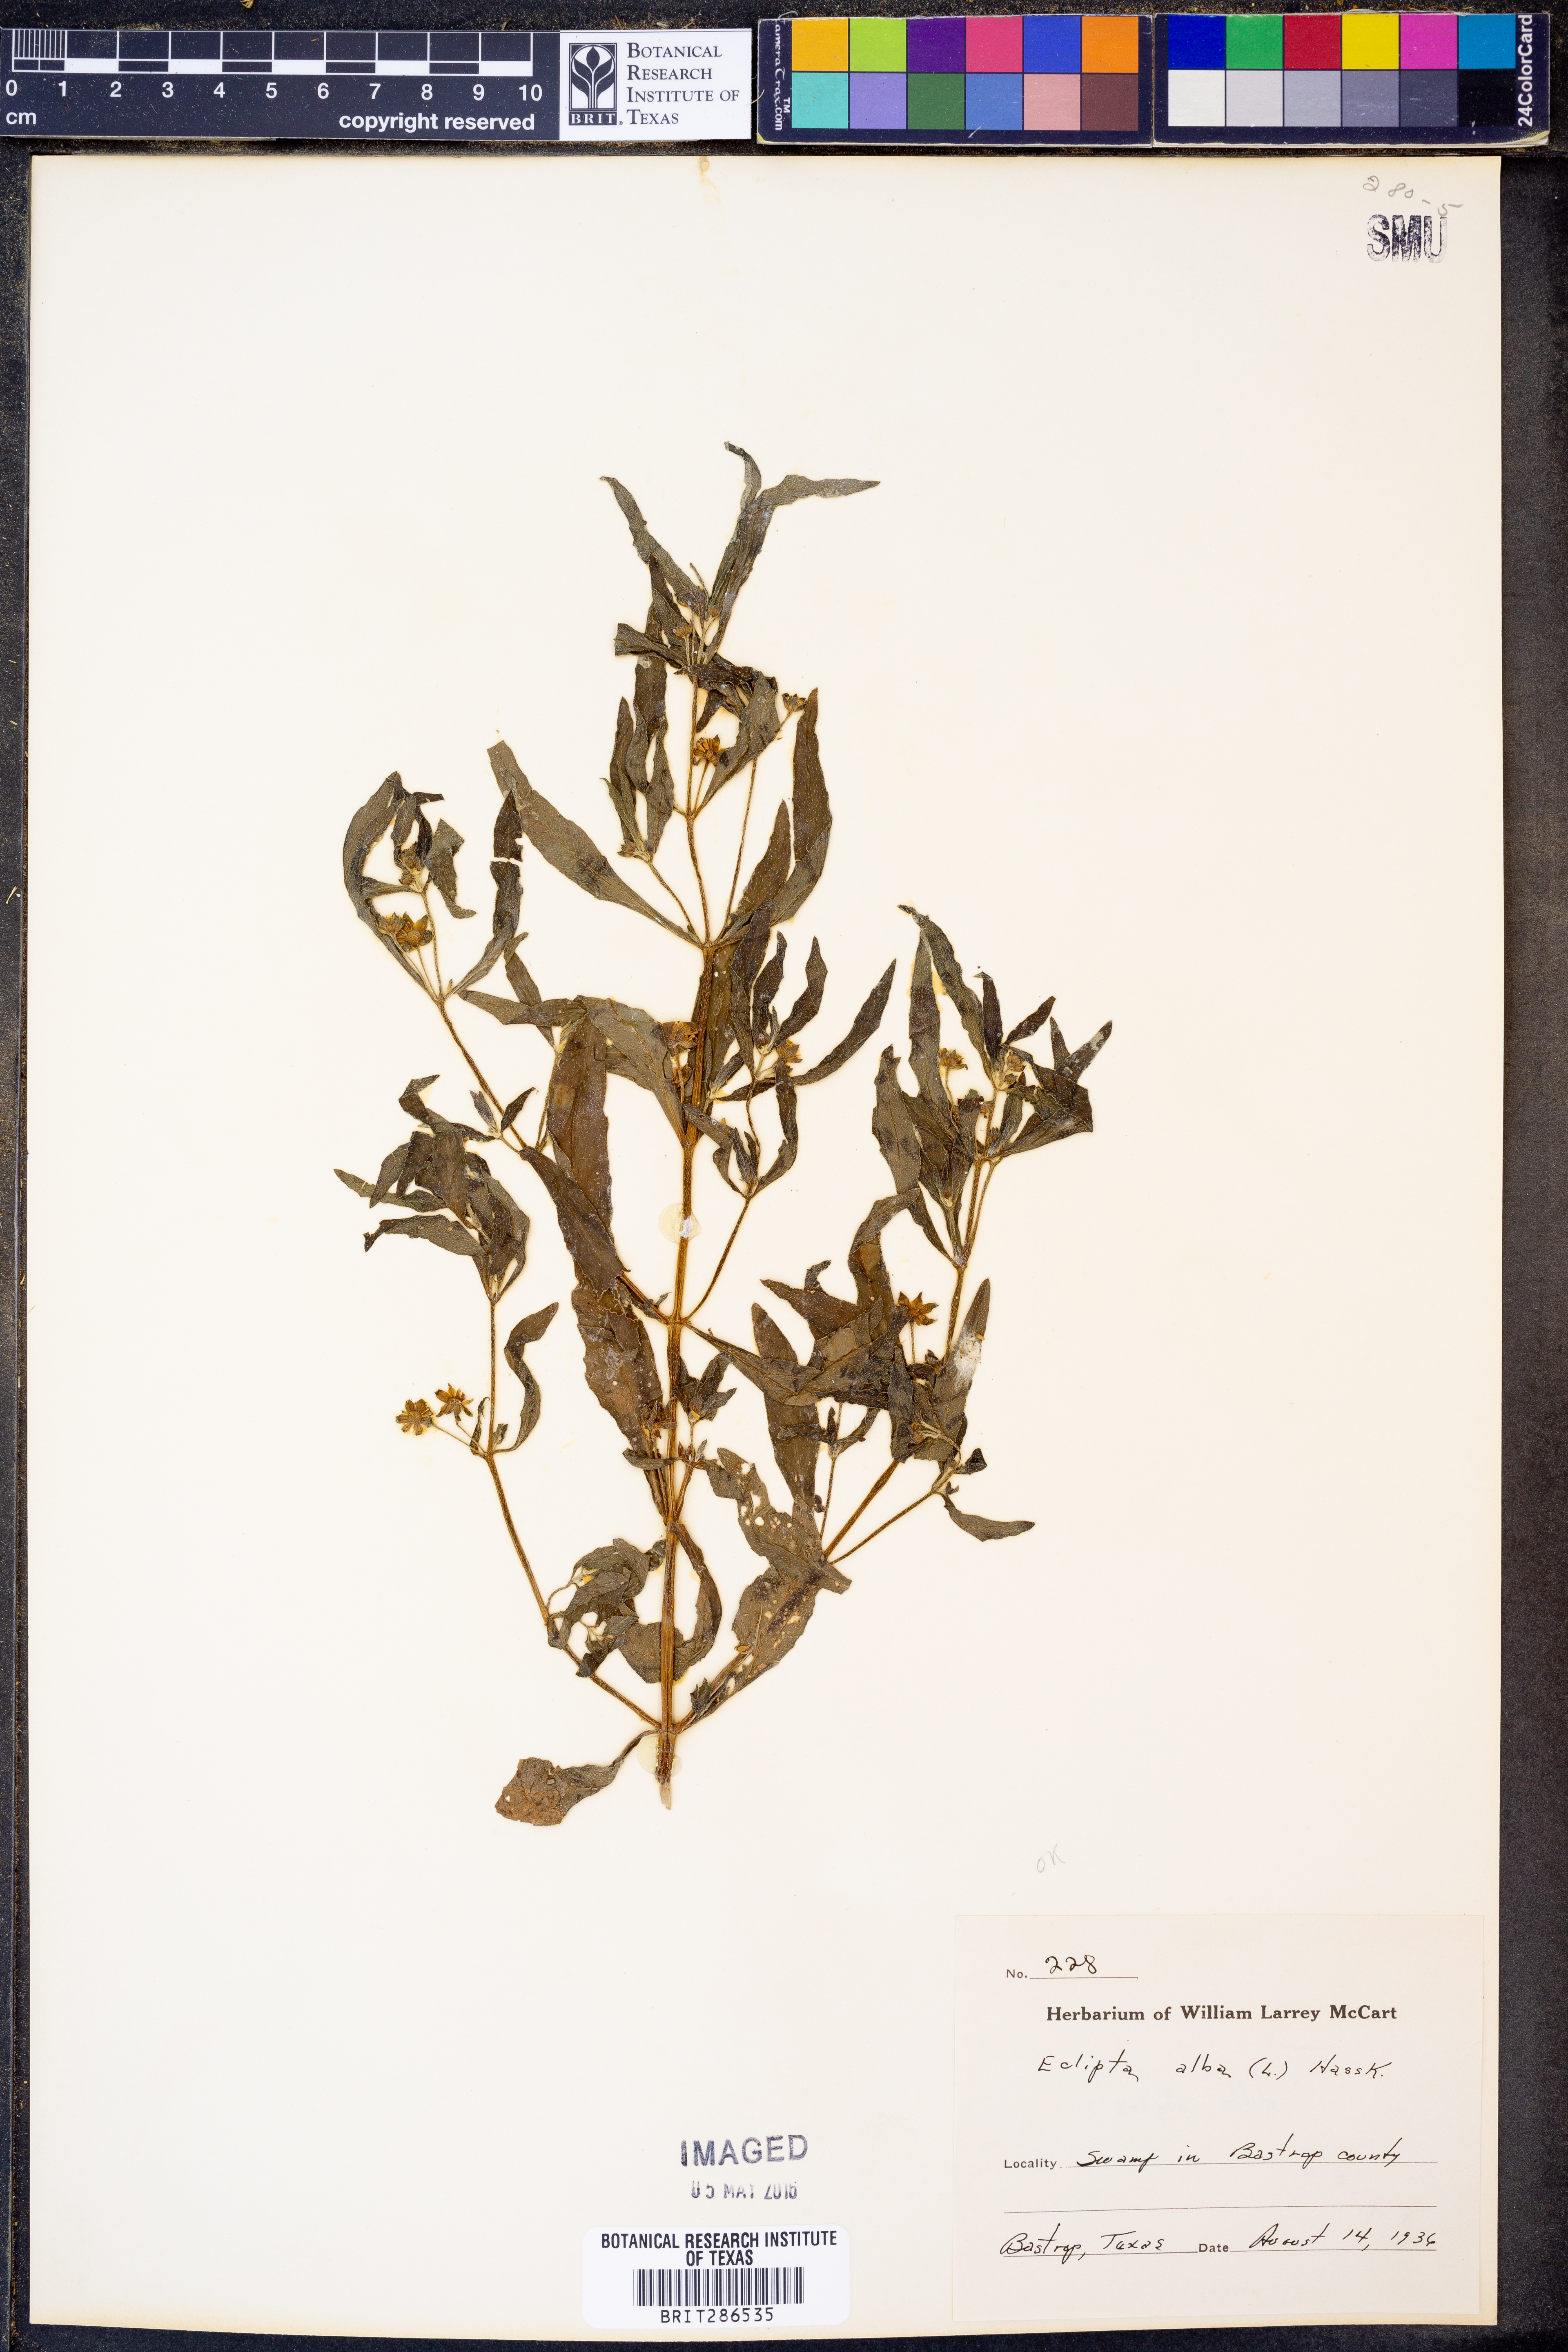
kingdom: Plantae
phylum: Tracheophyta
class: Magnoliopsida
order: Asterales
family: Asteraceae
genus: Eclipta
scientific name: Eclipta alba
